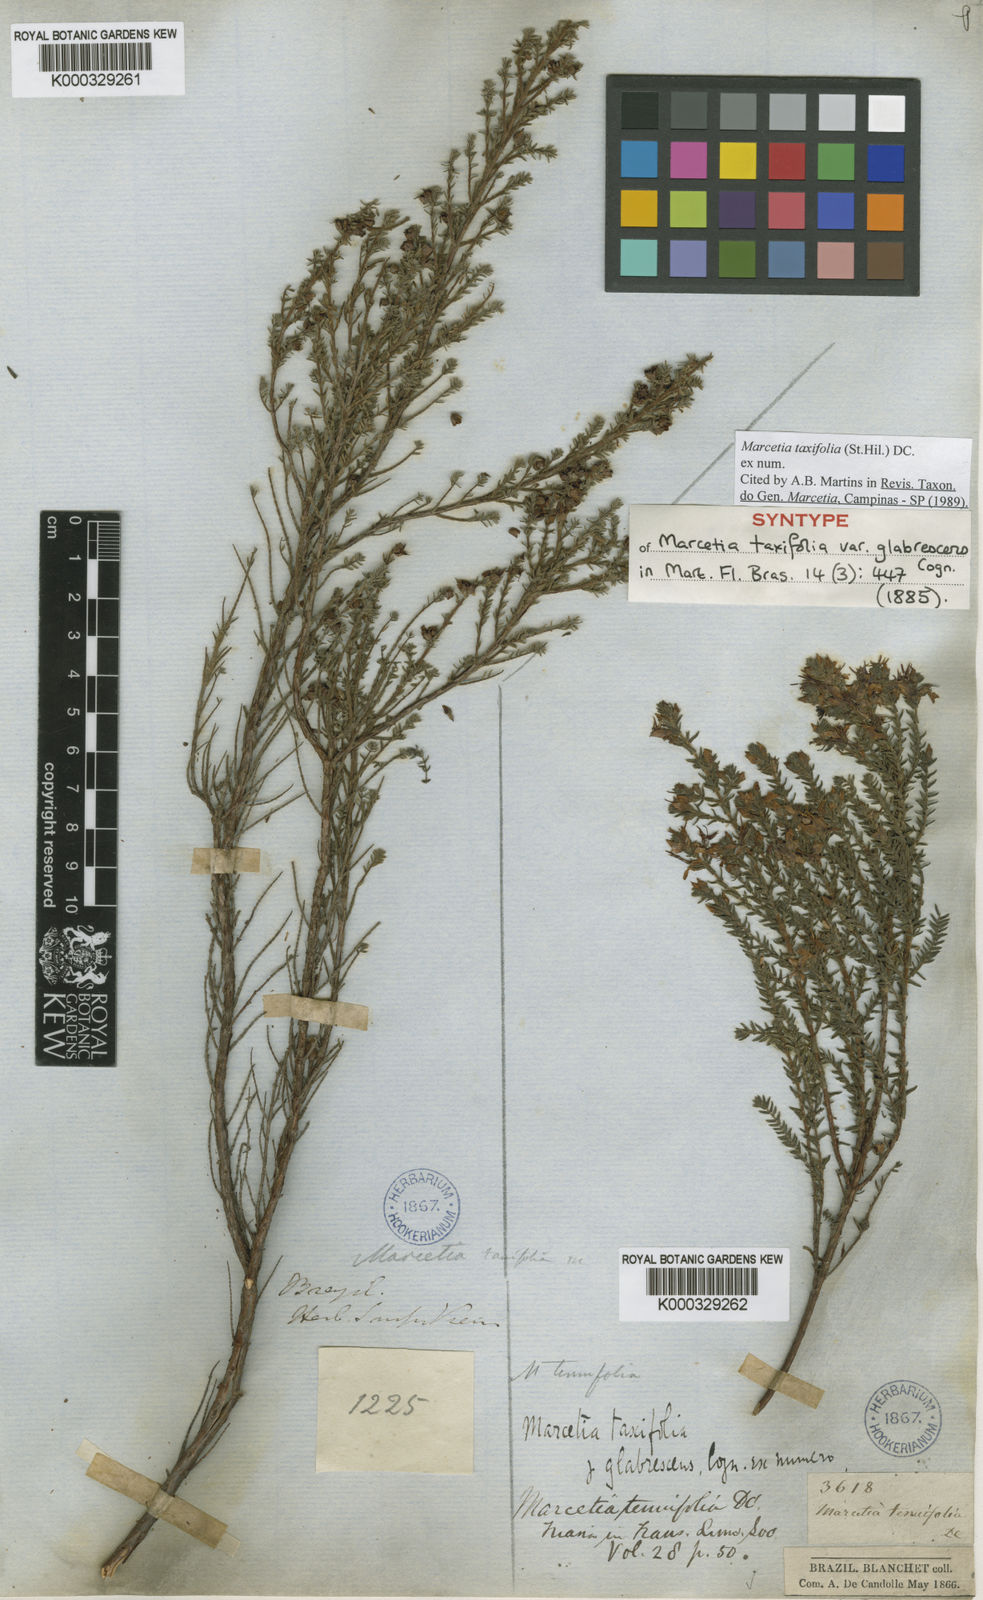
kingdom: Plantae
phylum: Tracheophyta
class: Magnoliopsida
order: Myrtales
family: Melastomataceae
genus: Marcetia
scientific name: Marcetia taxifolia
